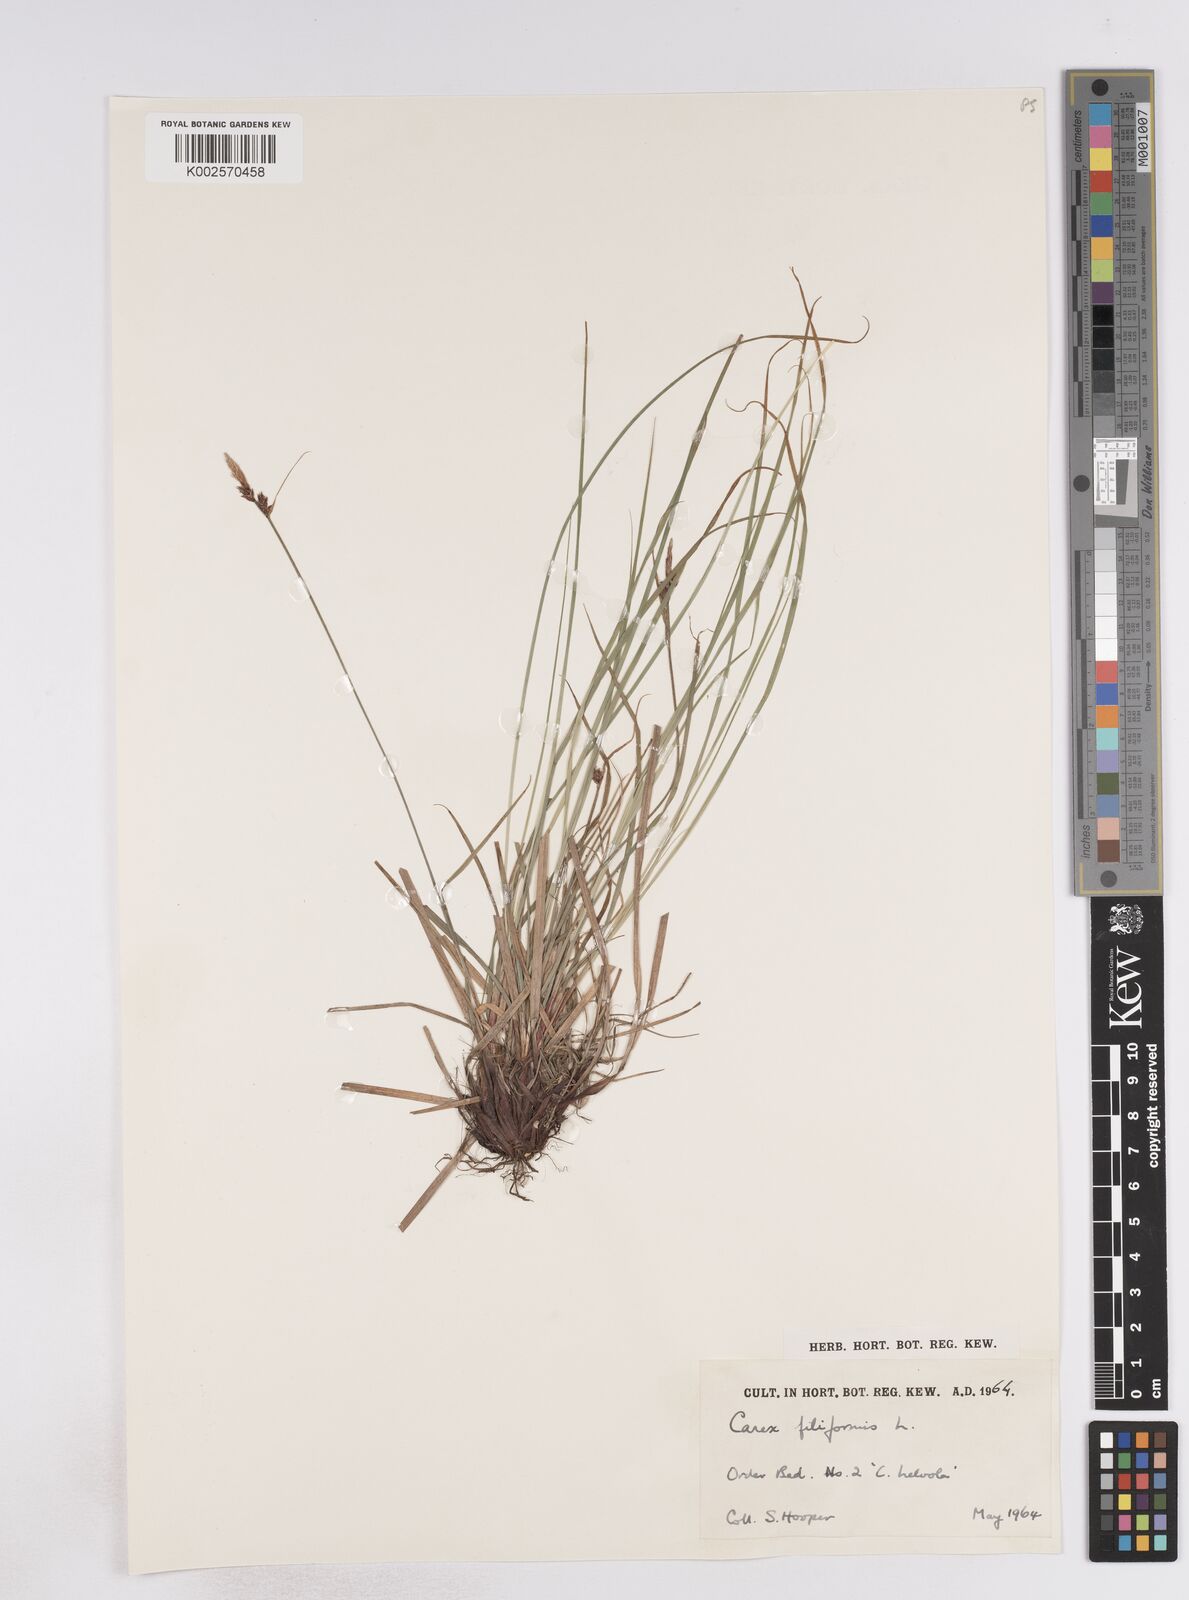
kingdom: Plantae
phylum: Tracheophyta
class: Liliopsida
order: Poales
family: Cyperaceae
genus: Carex
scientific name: Carex montana
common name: Soft-leaved sedge
